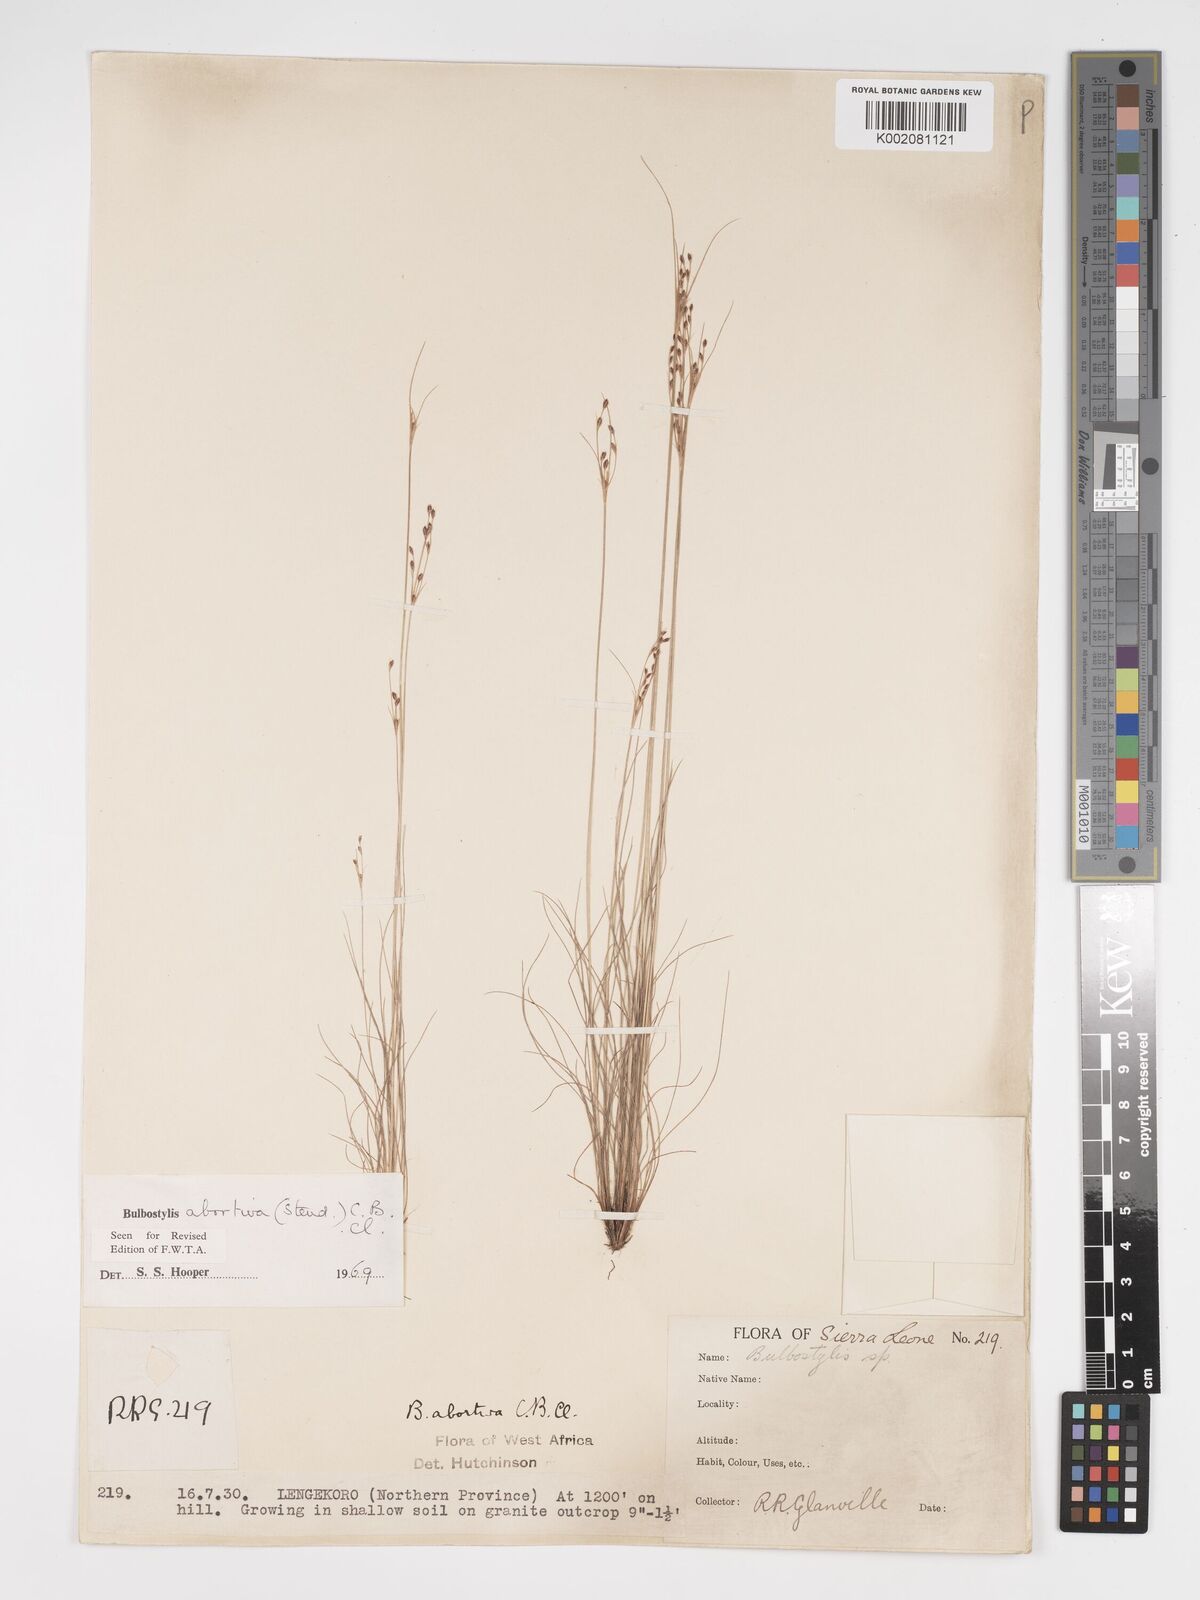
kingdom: Plantae
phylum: Tracheophyta
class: Liliopsida
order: Poales
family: Cyperaceae
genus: Bulbostylis
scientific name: Bulbostylis abortiva
